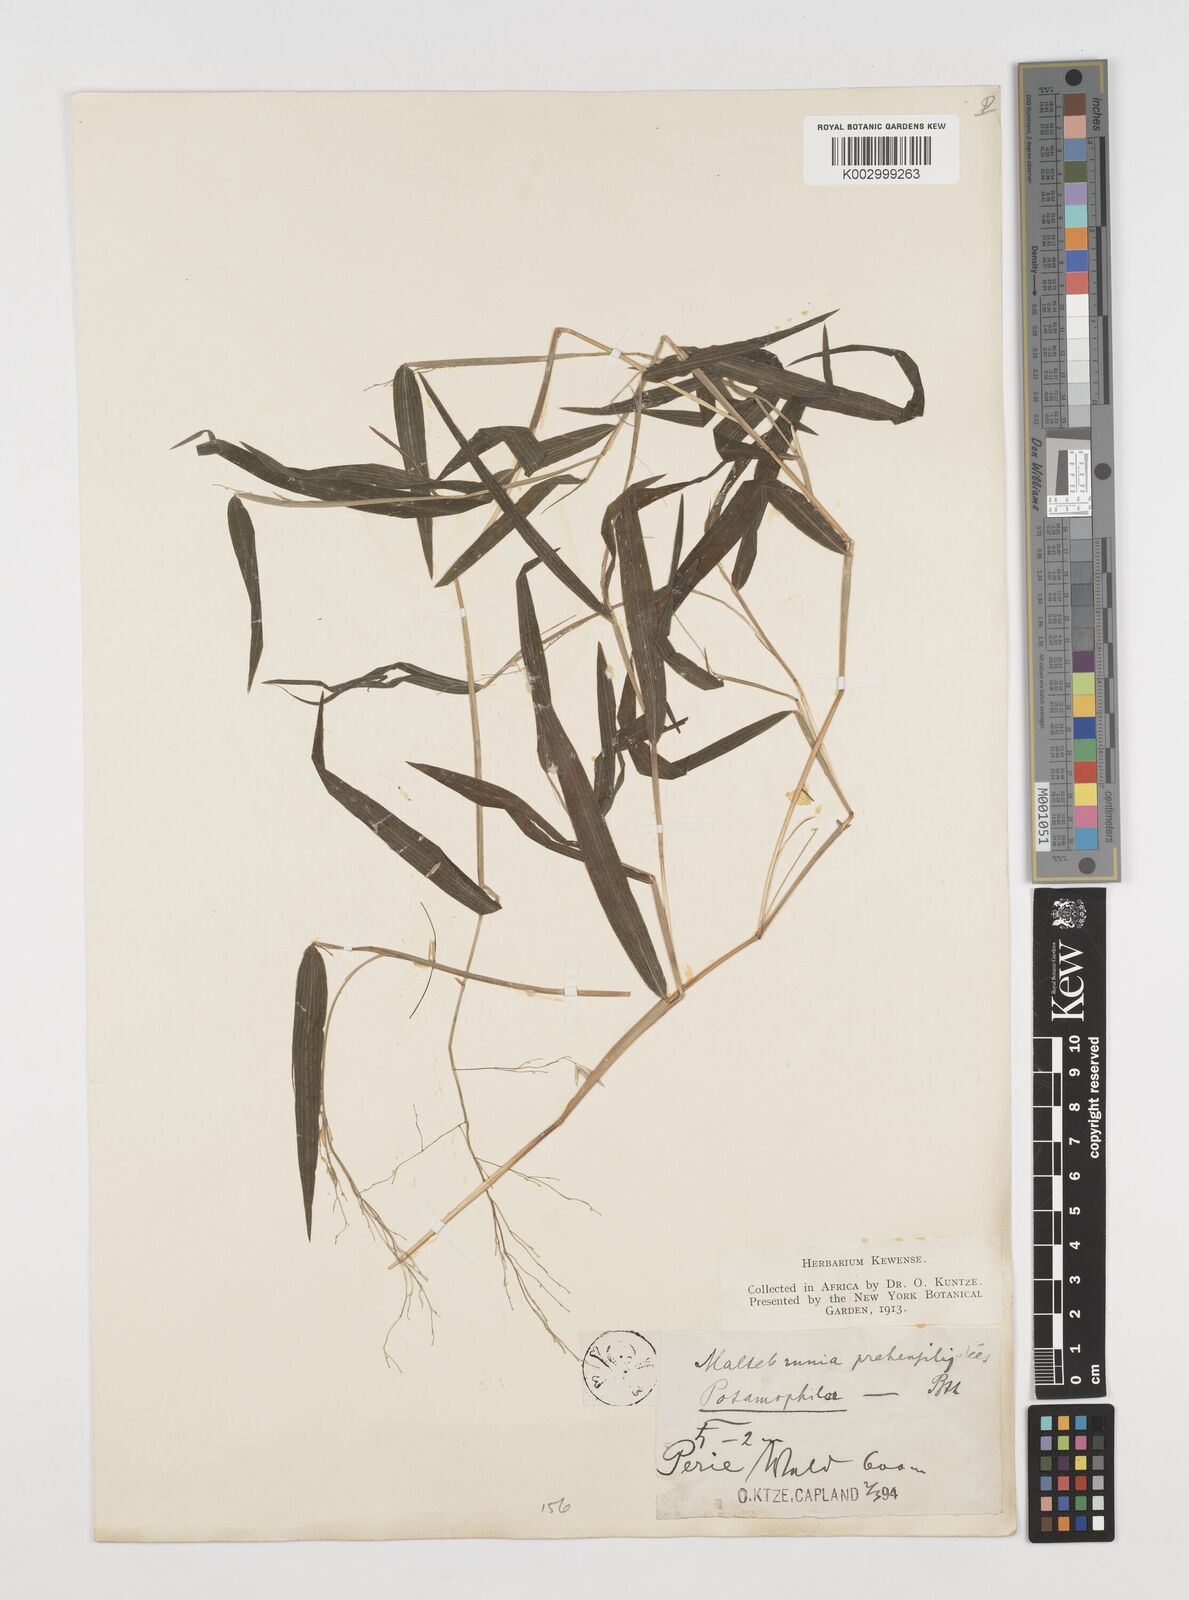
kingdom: Plantae
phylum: Tracheophyta
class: Liliopsida
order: Poales
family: Poaceae
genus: Prosphytochloa
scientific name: Prosphytochloa prehensilis
